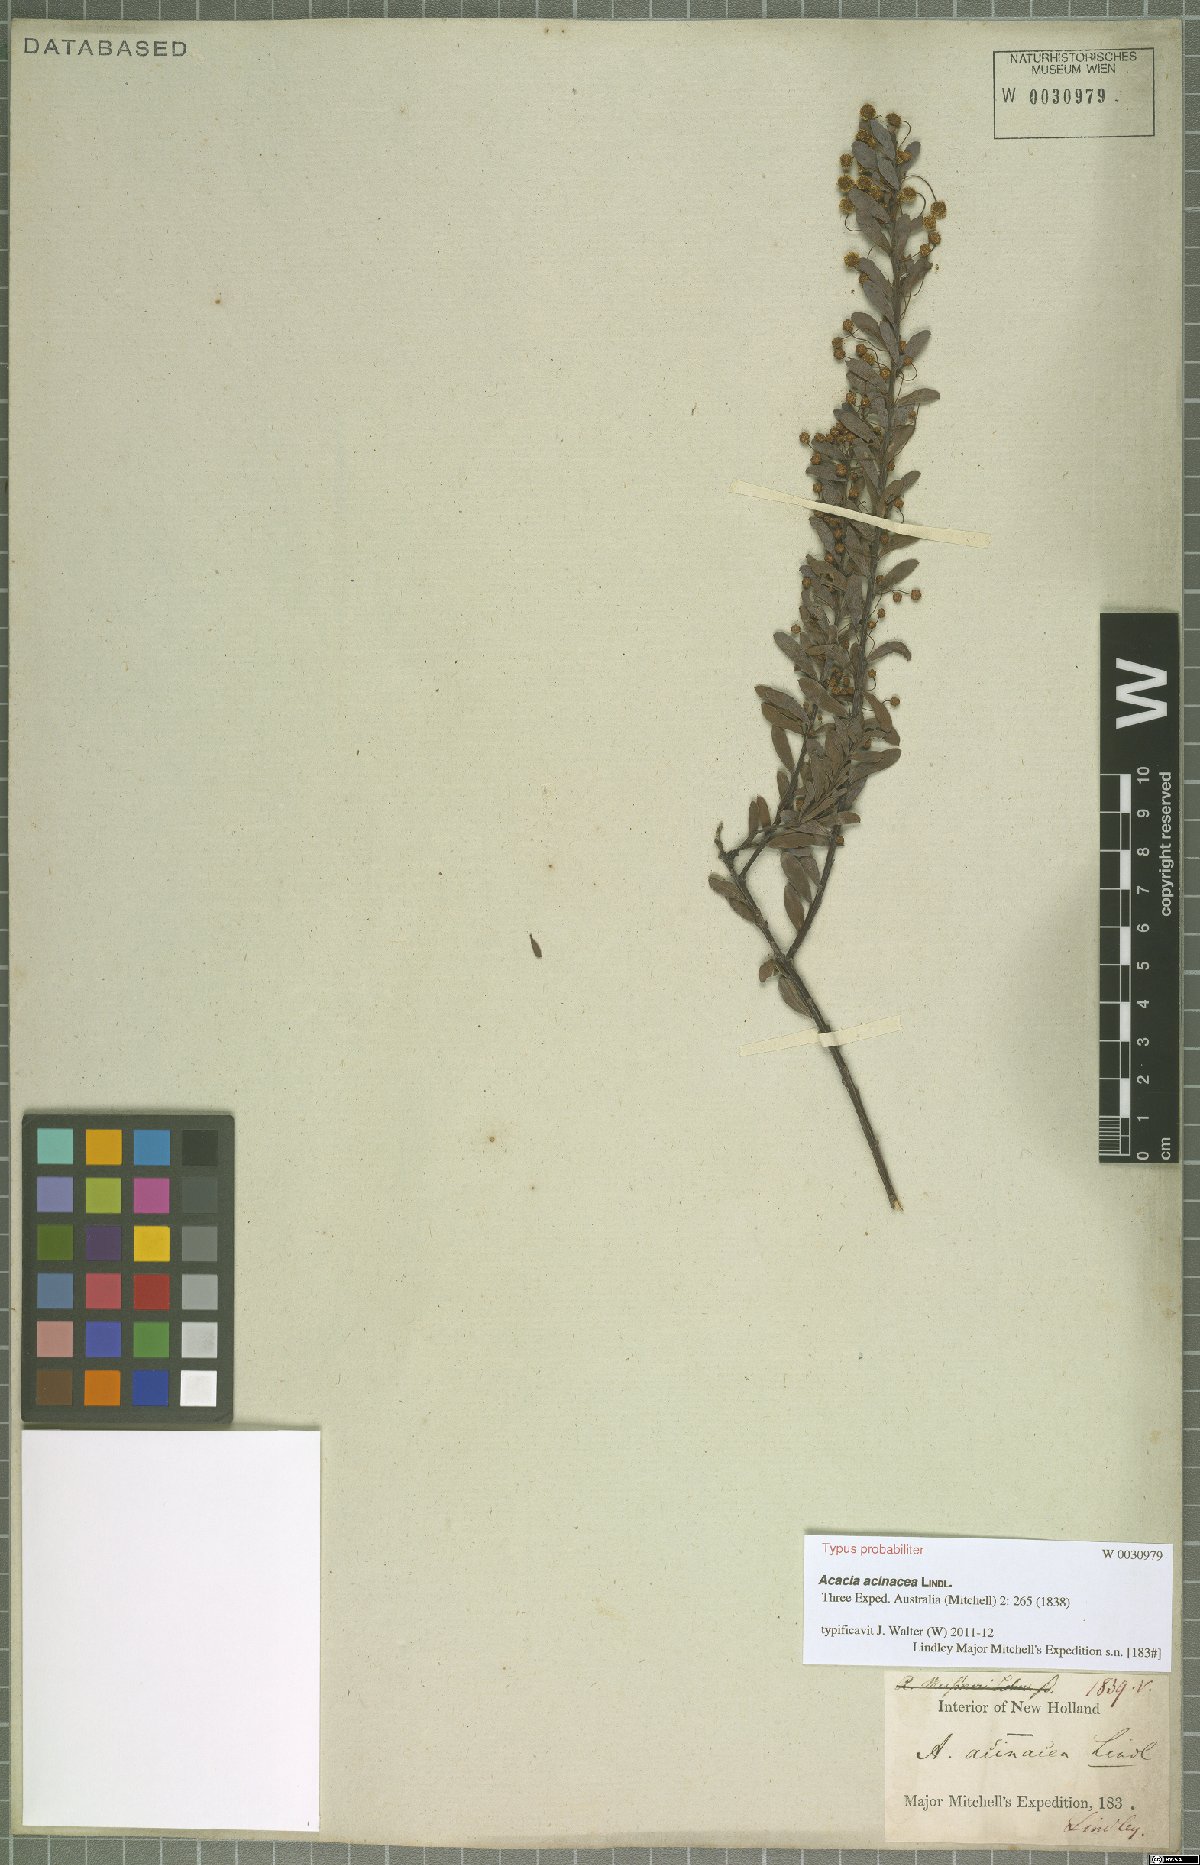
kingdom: Plantae
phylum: Tracheophyta
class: Magnoliopsida
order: Fabales
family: Fabaceae
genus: Acacia
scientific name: Acacia acinacea
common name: Gold-dust acacia
